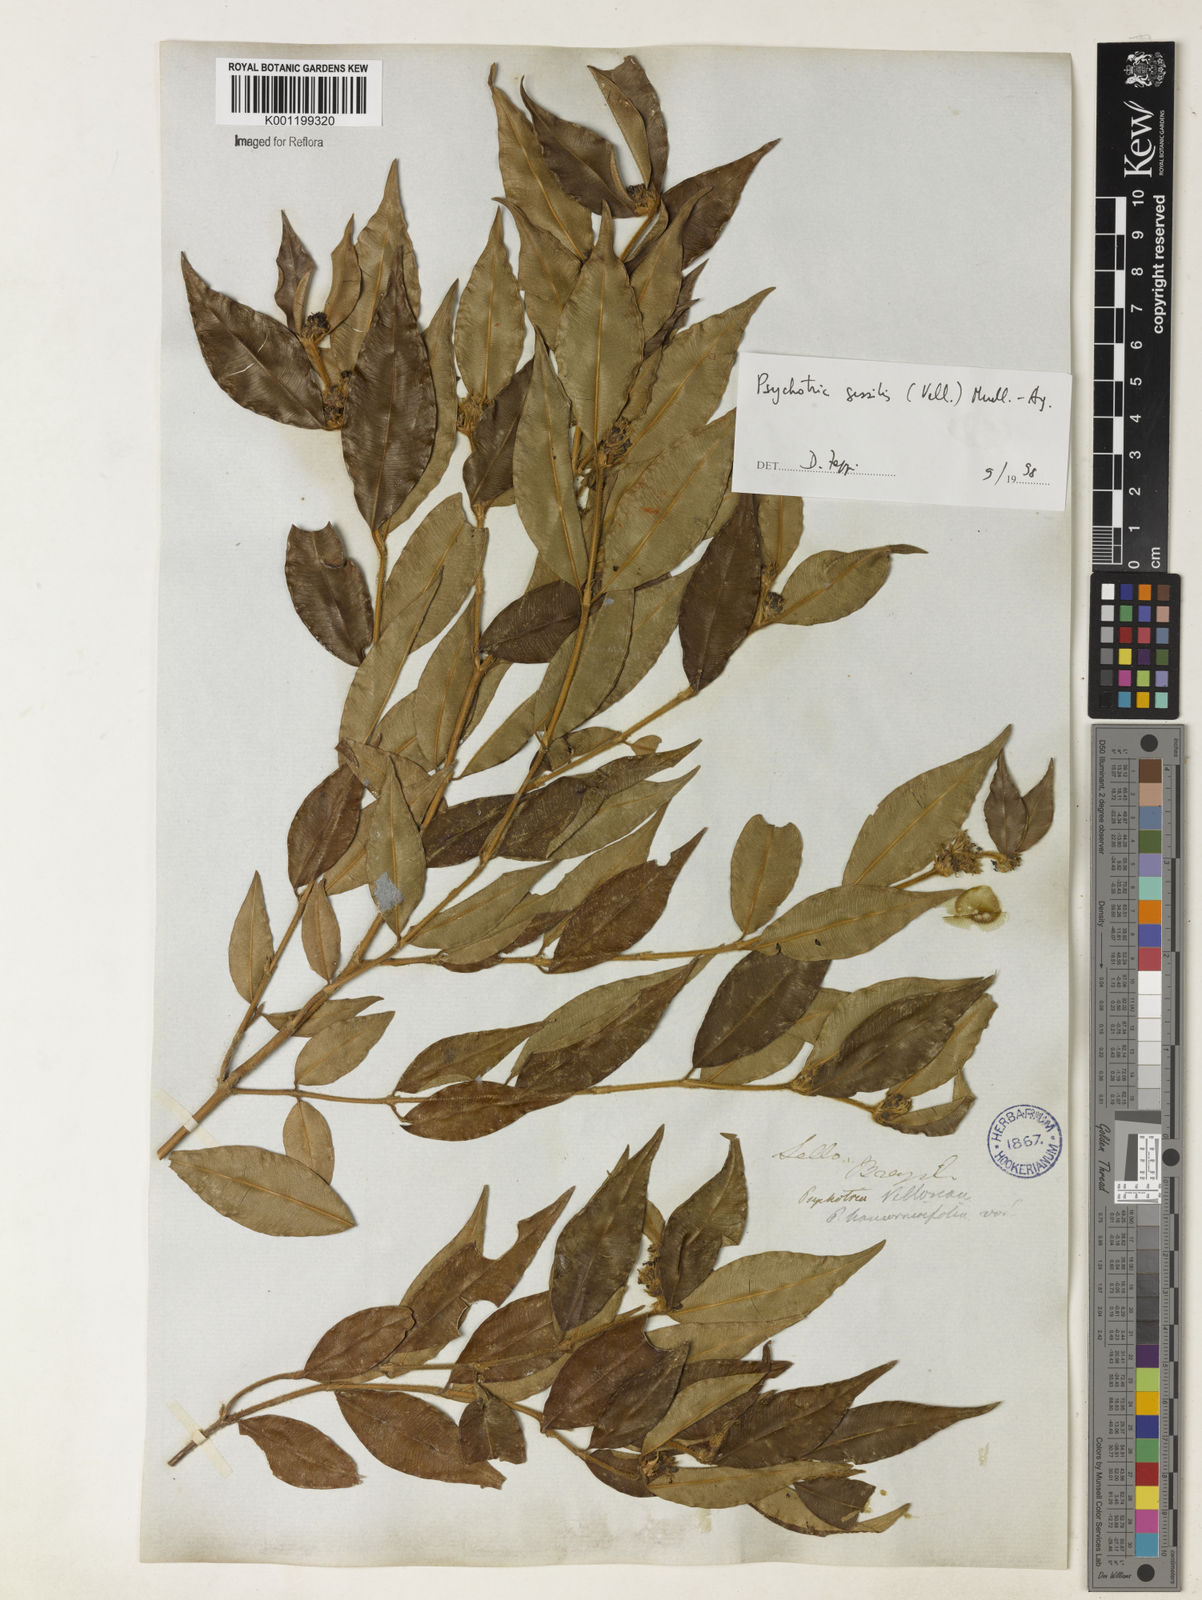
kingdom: Plantae
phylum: Tracheophyta
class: Magnoliopsida
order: Gentianales
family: Rubiaceae
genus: Rudgea
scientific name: Rudgea sessilis
